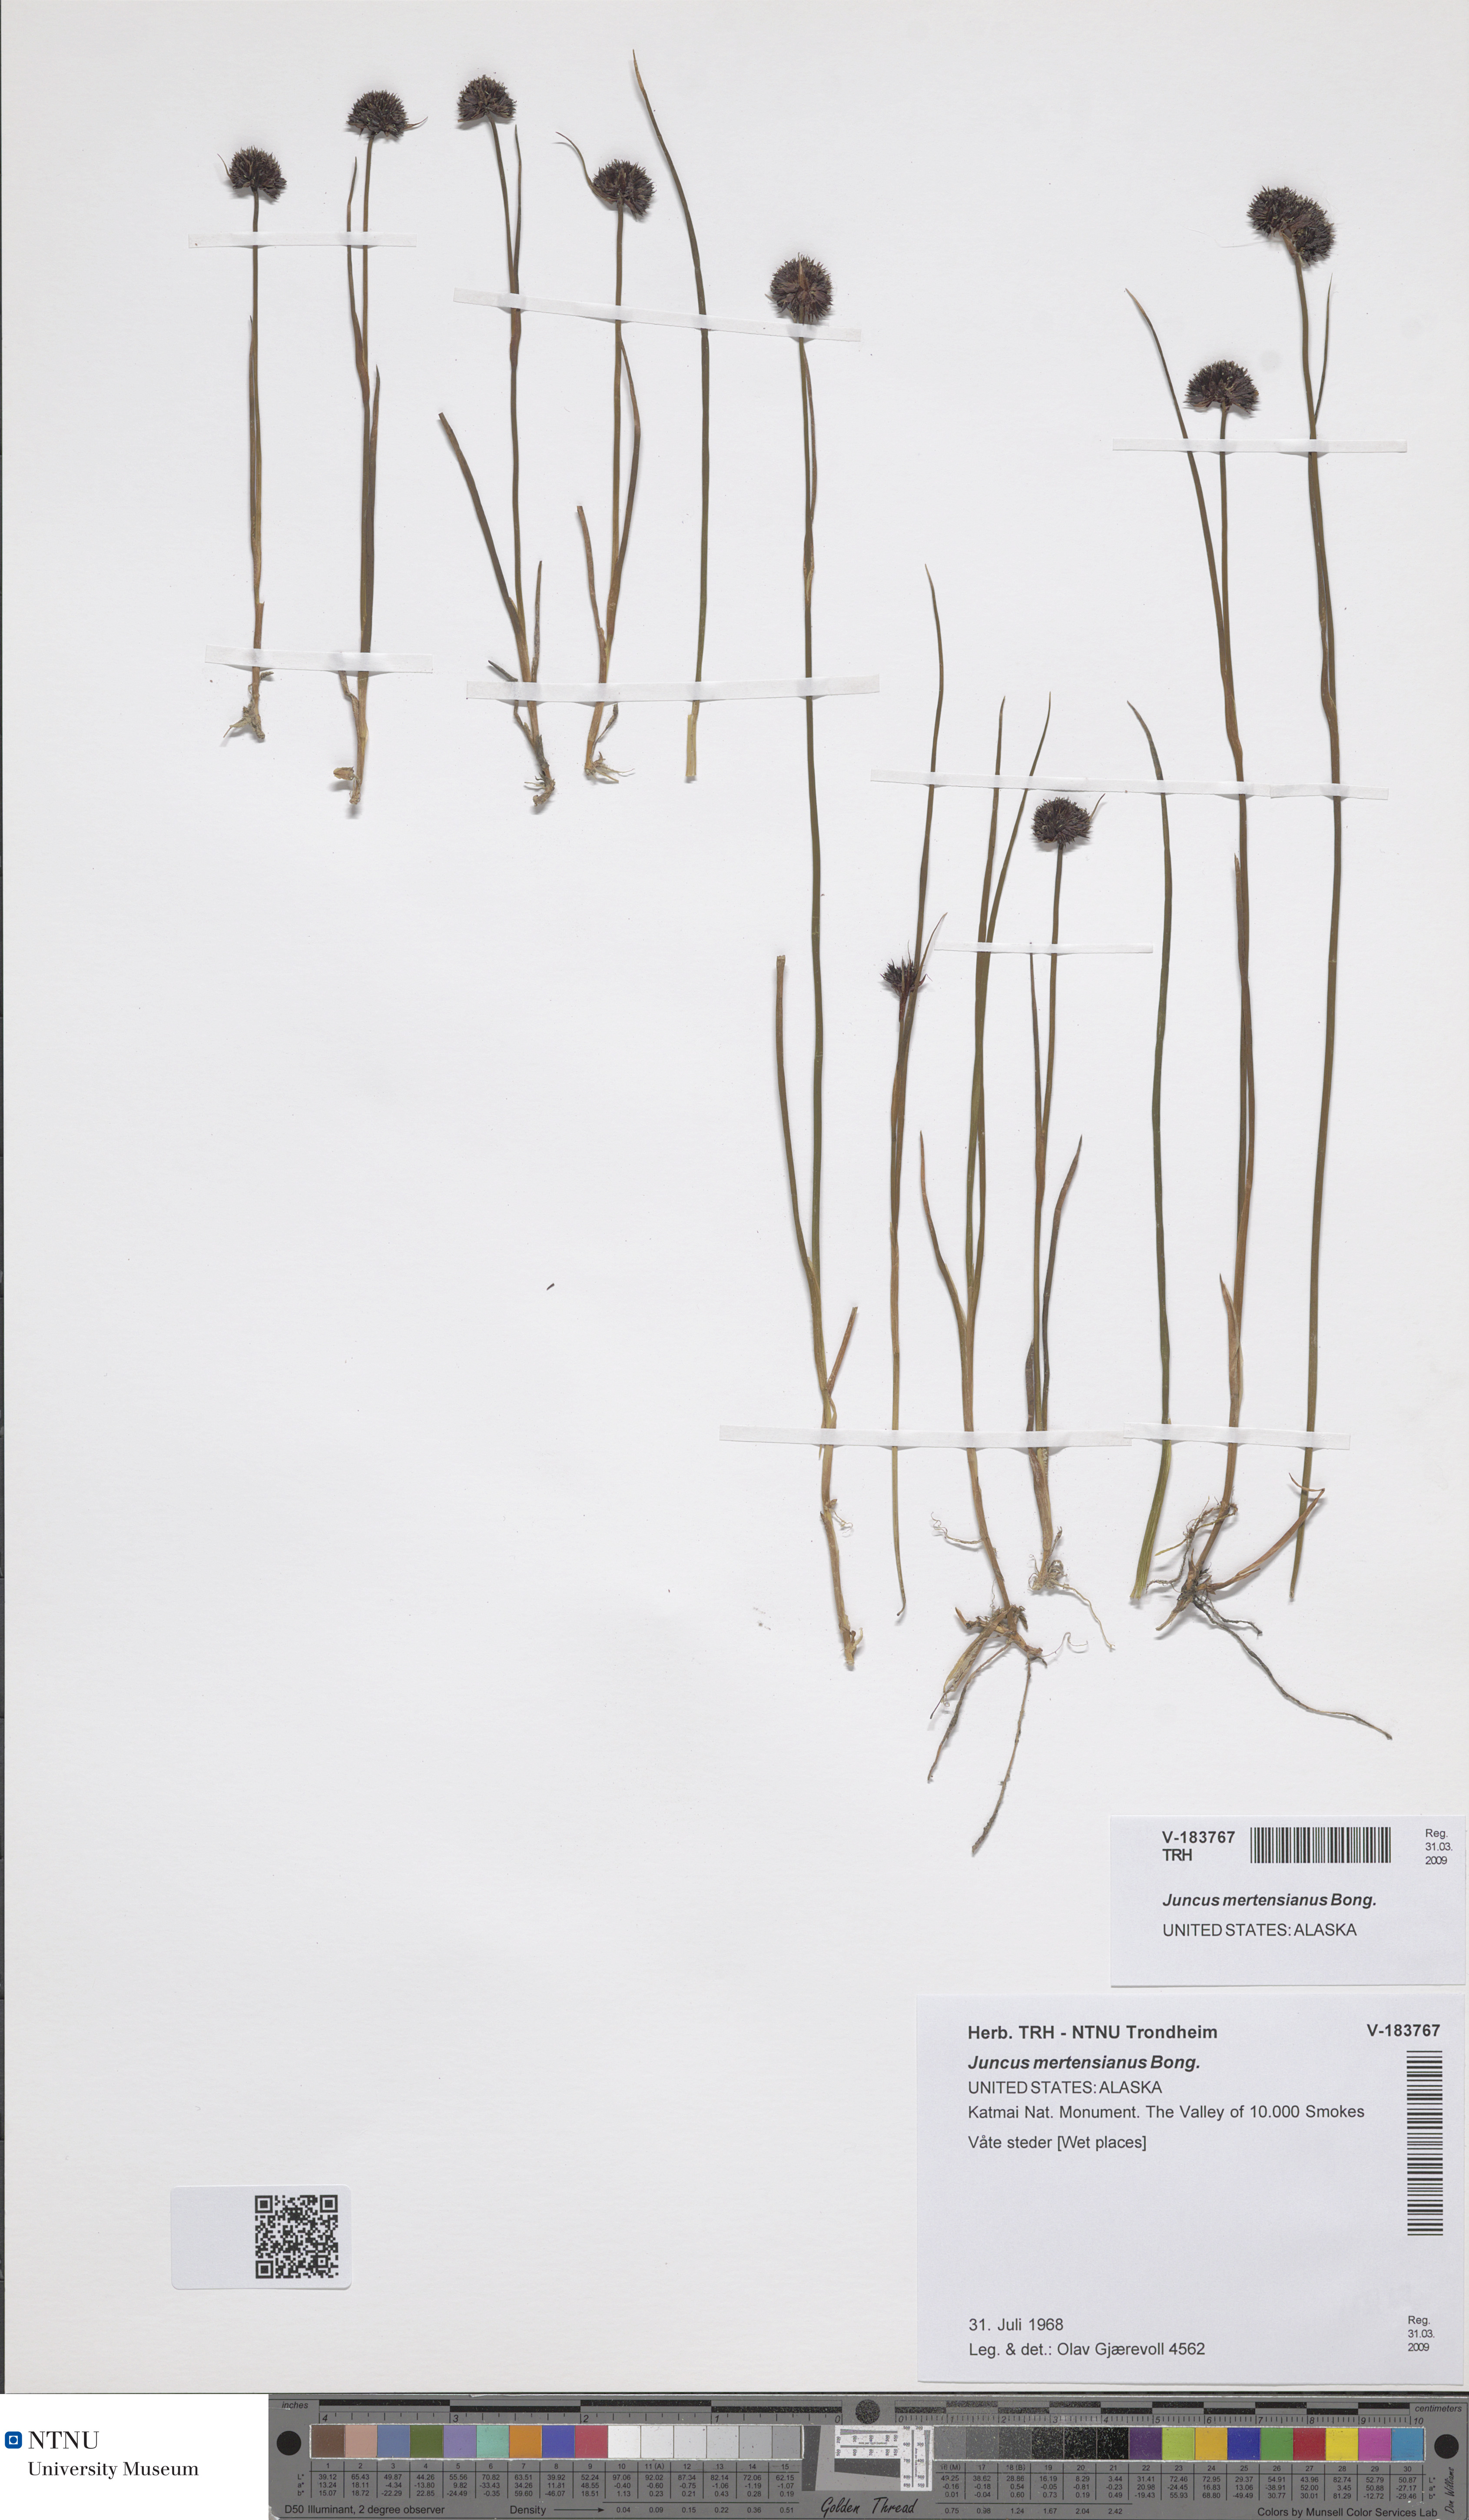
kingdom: Plantae
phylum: Tracheophyta
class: Liliopsida
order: Poales
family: Juncaceae
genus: Juncus
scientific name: Juncus mertensianus
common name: Merten's rush
